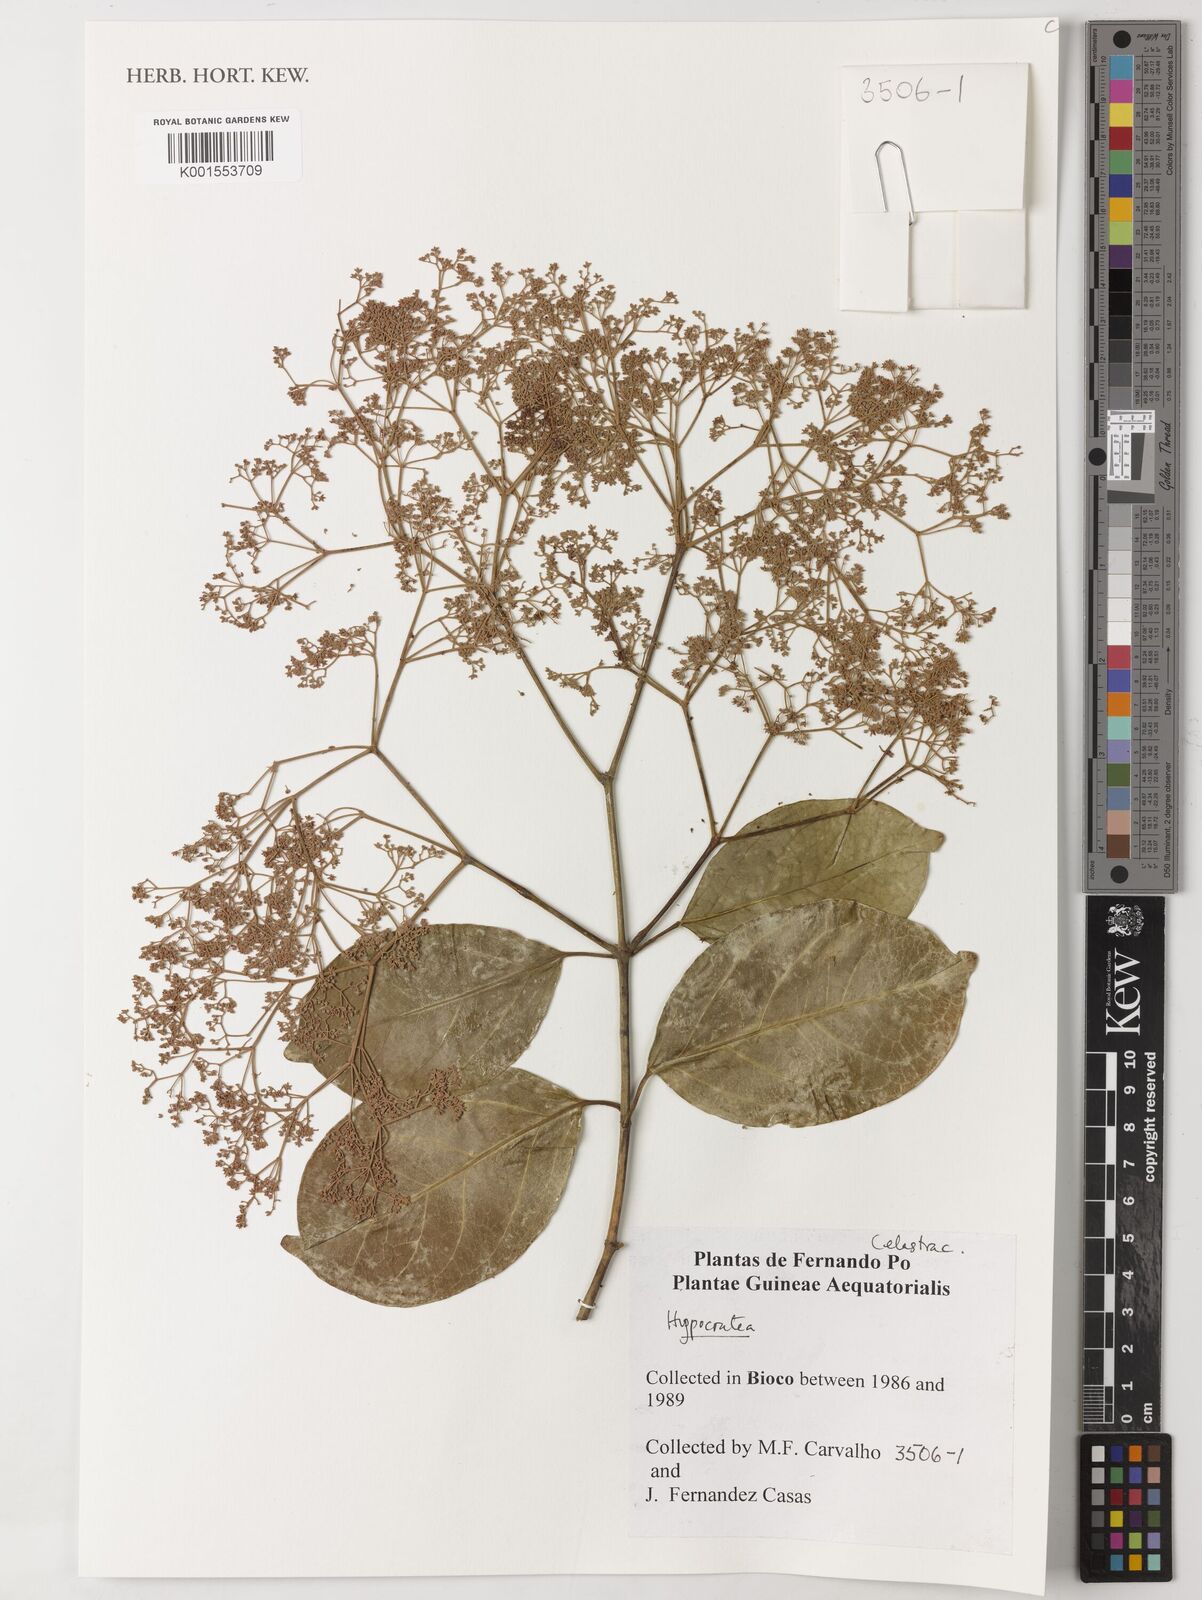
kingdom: Plantae
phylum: Tracheophyta
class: Magnoliopsida
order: Celastrales
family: Celastraceae
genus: Hippocratea
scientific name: Hippocratea
